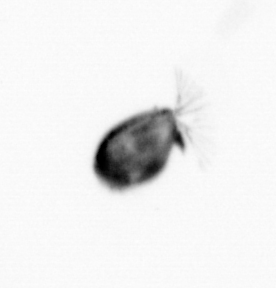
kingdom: Animalia
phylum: Arthropoda
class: Maxillopoda
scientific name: Maxillopoda
